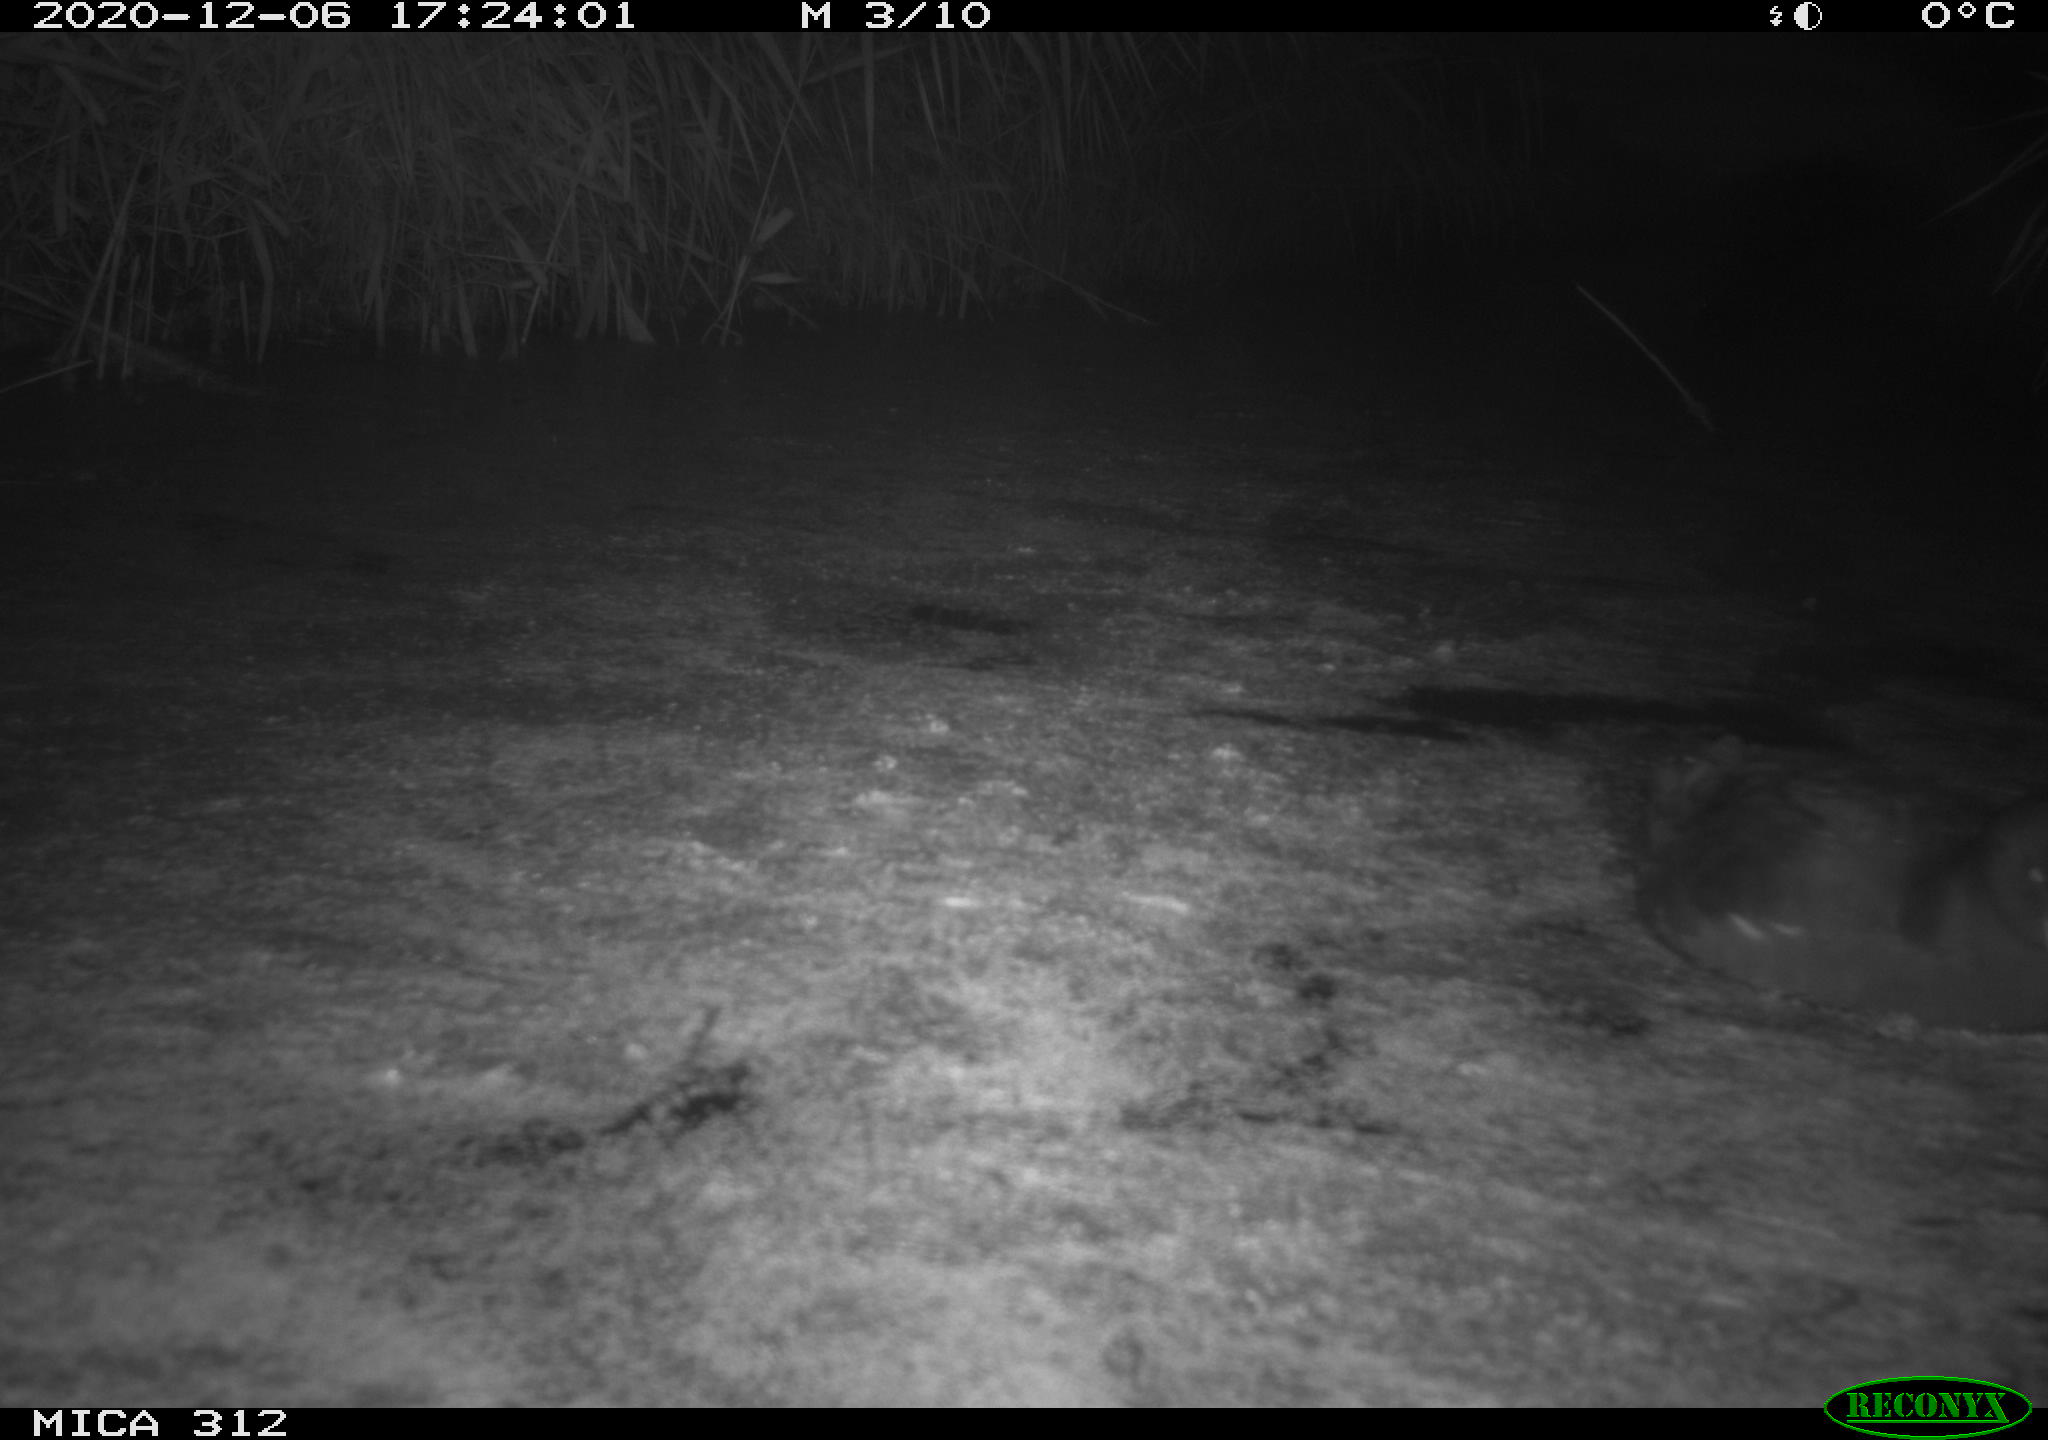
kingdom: Animalia
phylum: Chordata
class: Aves
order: Gruiformes
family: Rallidae
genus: Gallinula
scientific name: Gallinula chloropus
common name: Common moorhen
